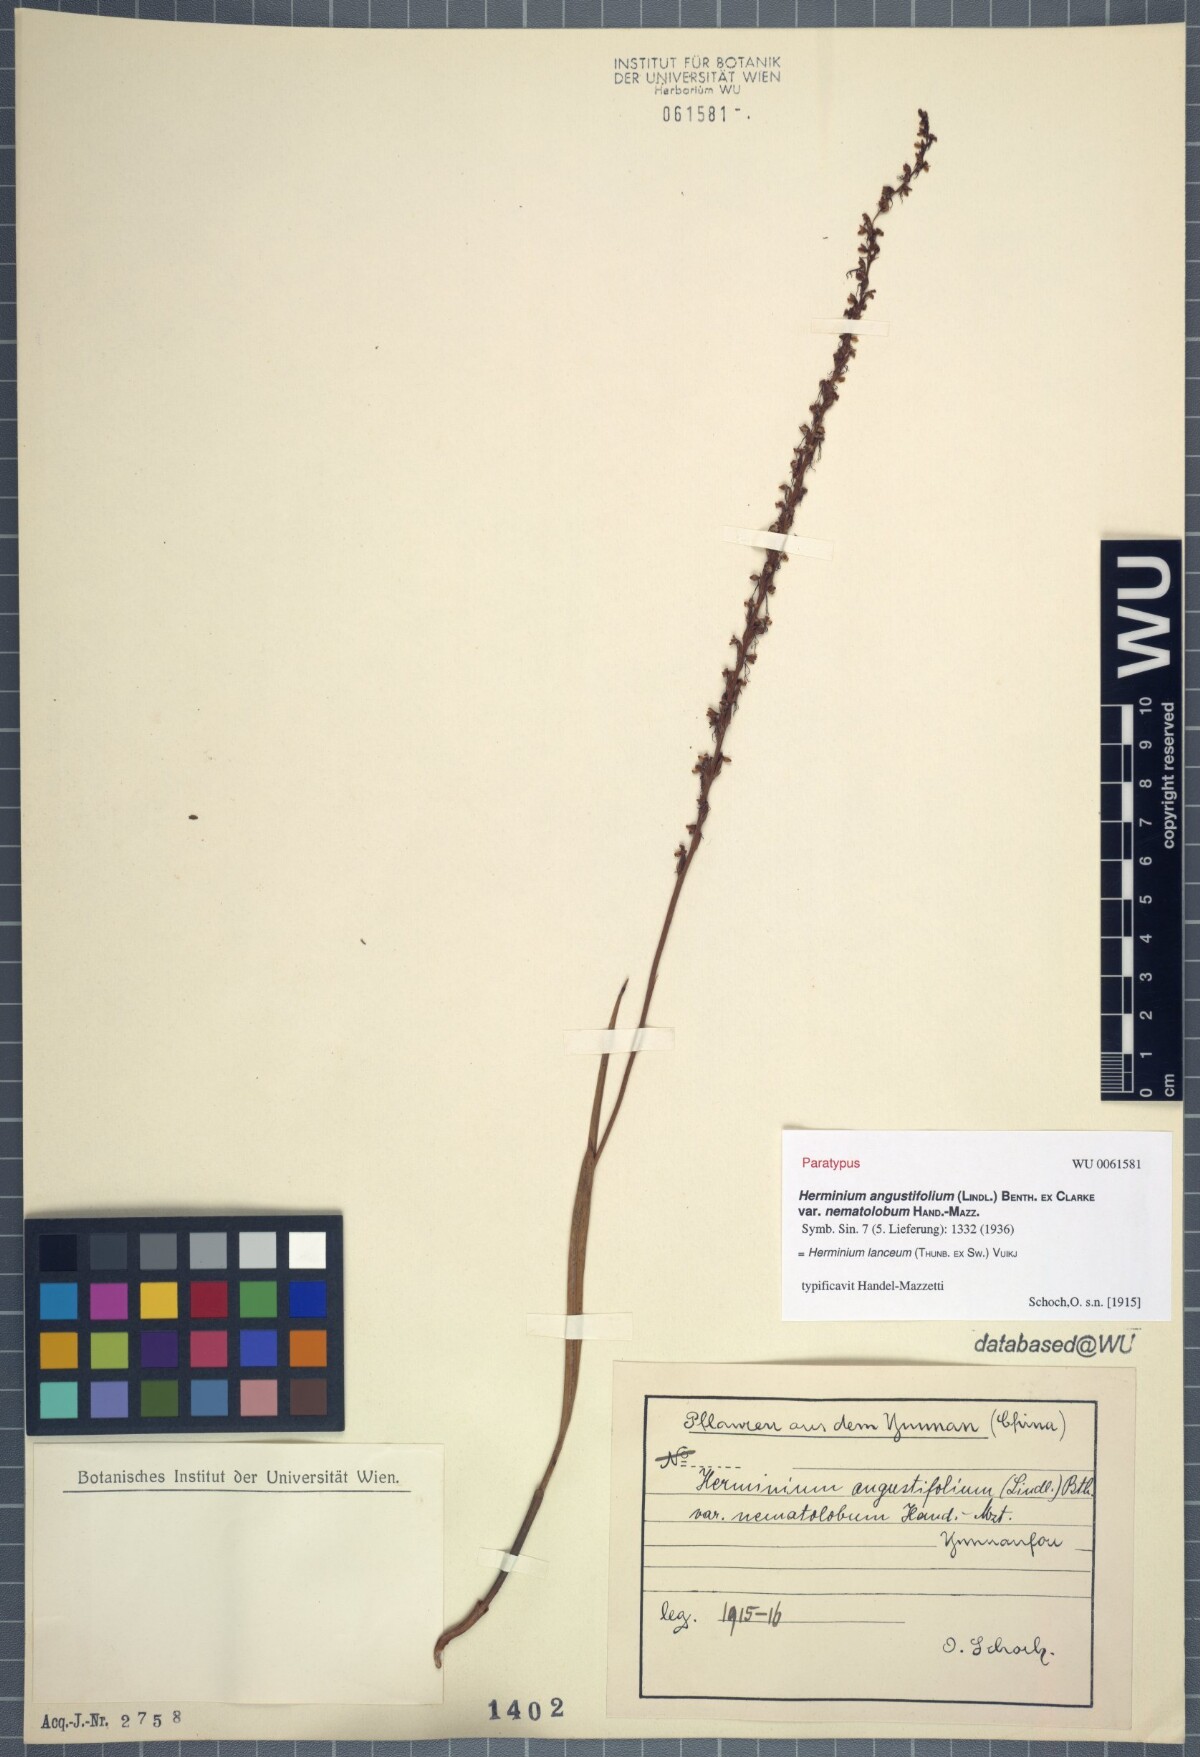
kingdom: Plantae
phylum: Tracheophyta
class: Liliopsida
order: Asparagales
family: Orchidaceae
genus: Herminium
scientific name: Herminium lanceum
